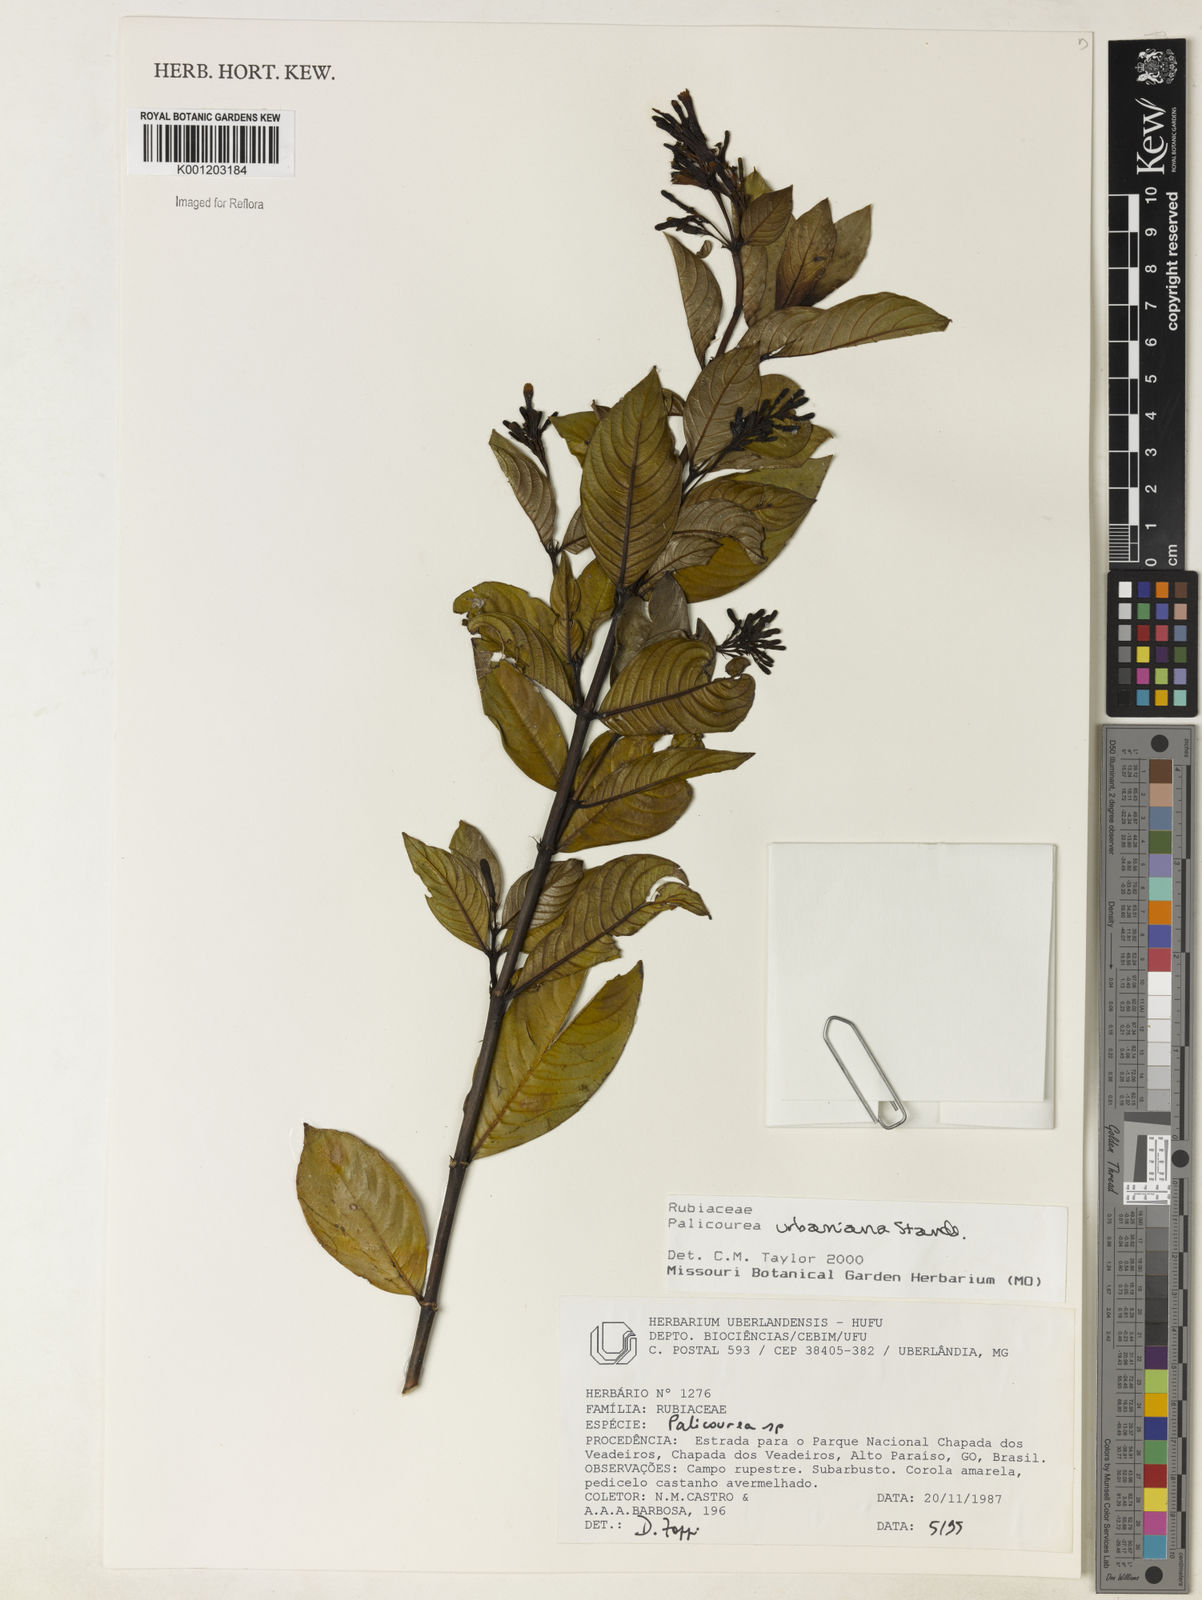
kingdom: Plantae
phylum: Tracheophyta
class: Magnoliopsida
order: Gentianales
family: Rubiaceae
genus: Palicourea
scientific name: Palicourea urbaniana
